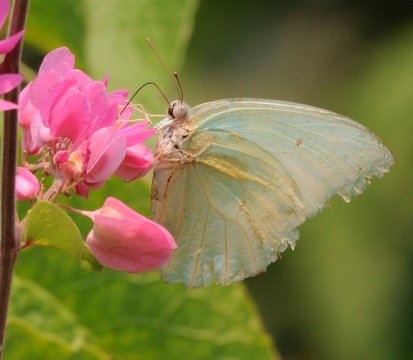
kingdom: Animalia
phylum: Arthropoda
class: Insecta
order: Lepidoptera
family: Pieridae
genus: Catopsilia
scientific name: Catopsilia florella
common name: African Migrant
